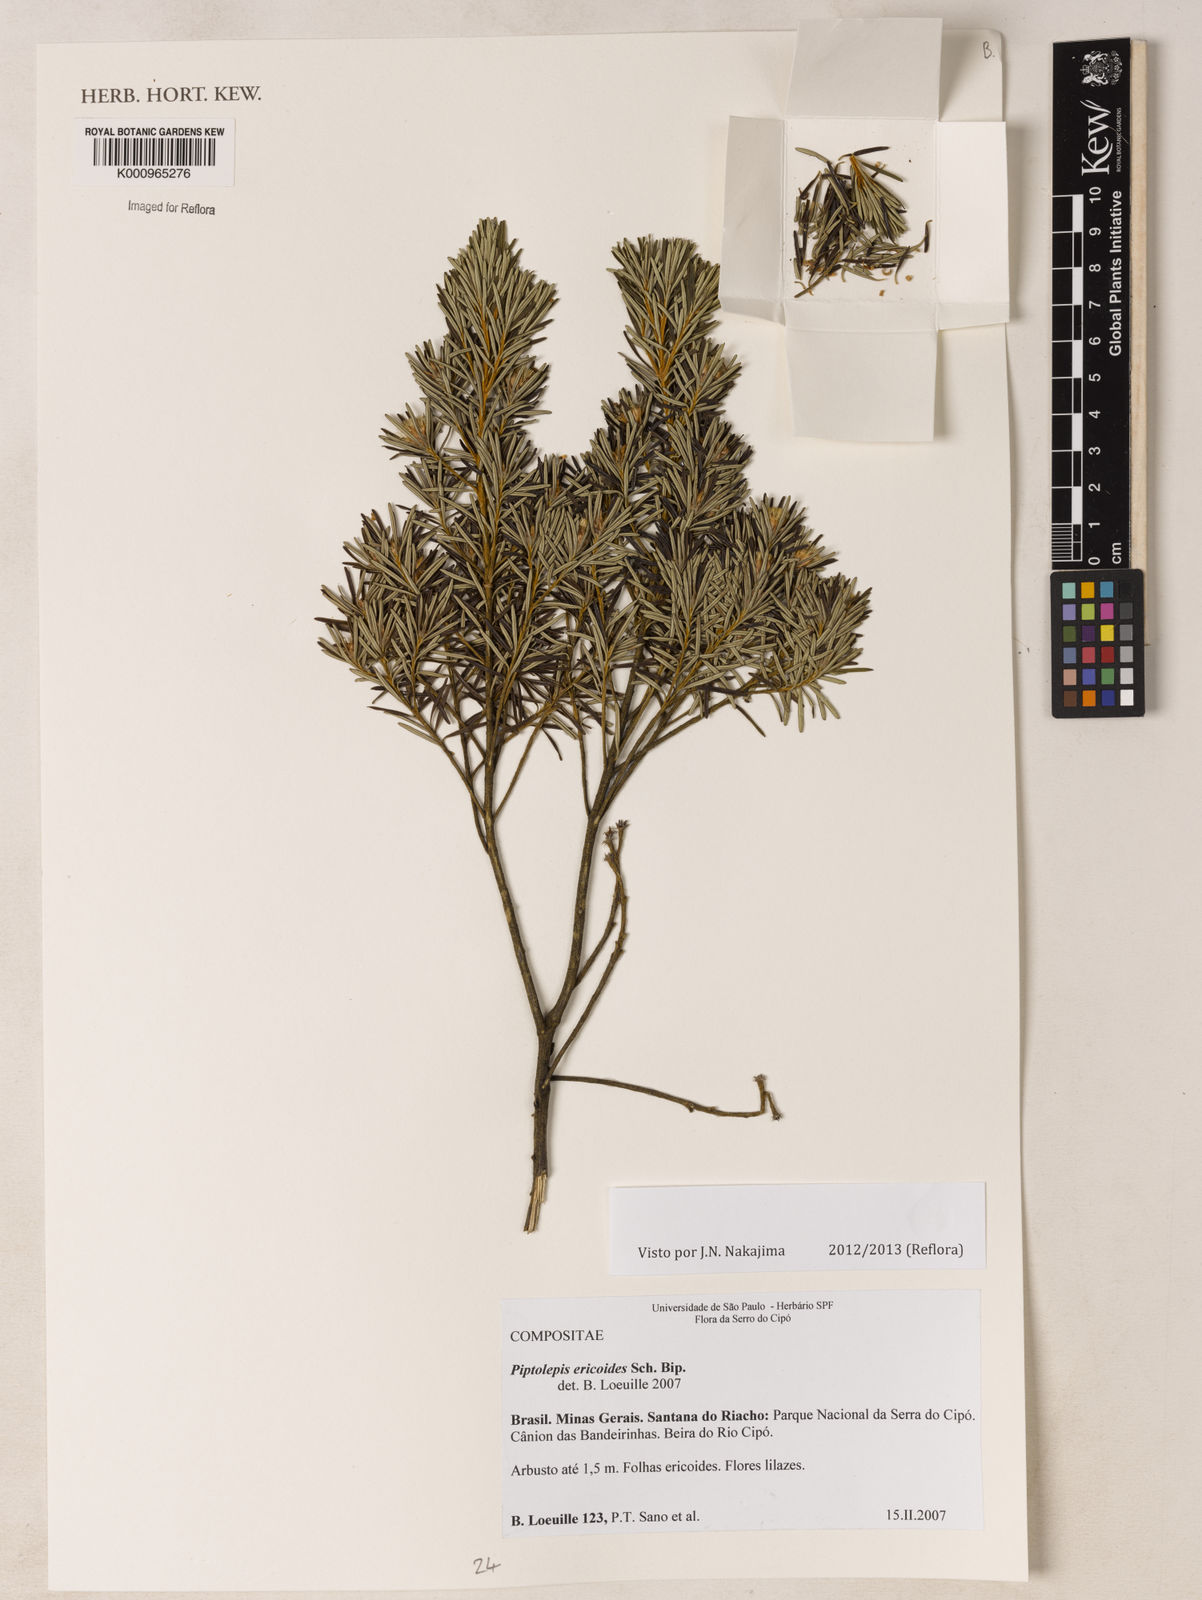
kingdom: Plantae
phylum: Tracheophyta
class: Magnoliopsida
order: Asterales
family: Asteraceae
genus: Piptolepis
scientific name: Piptolepis ericoides
